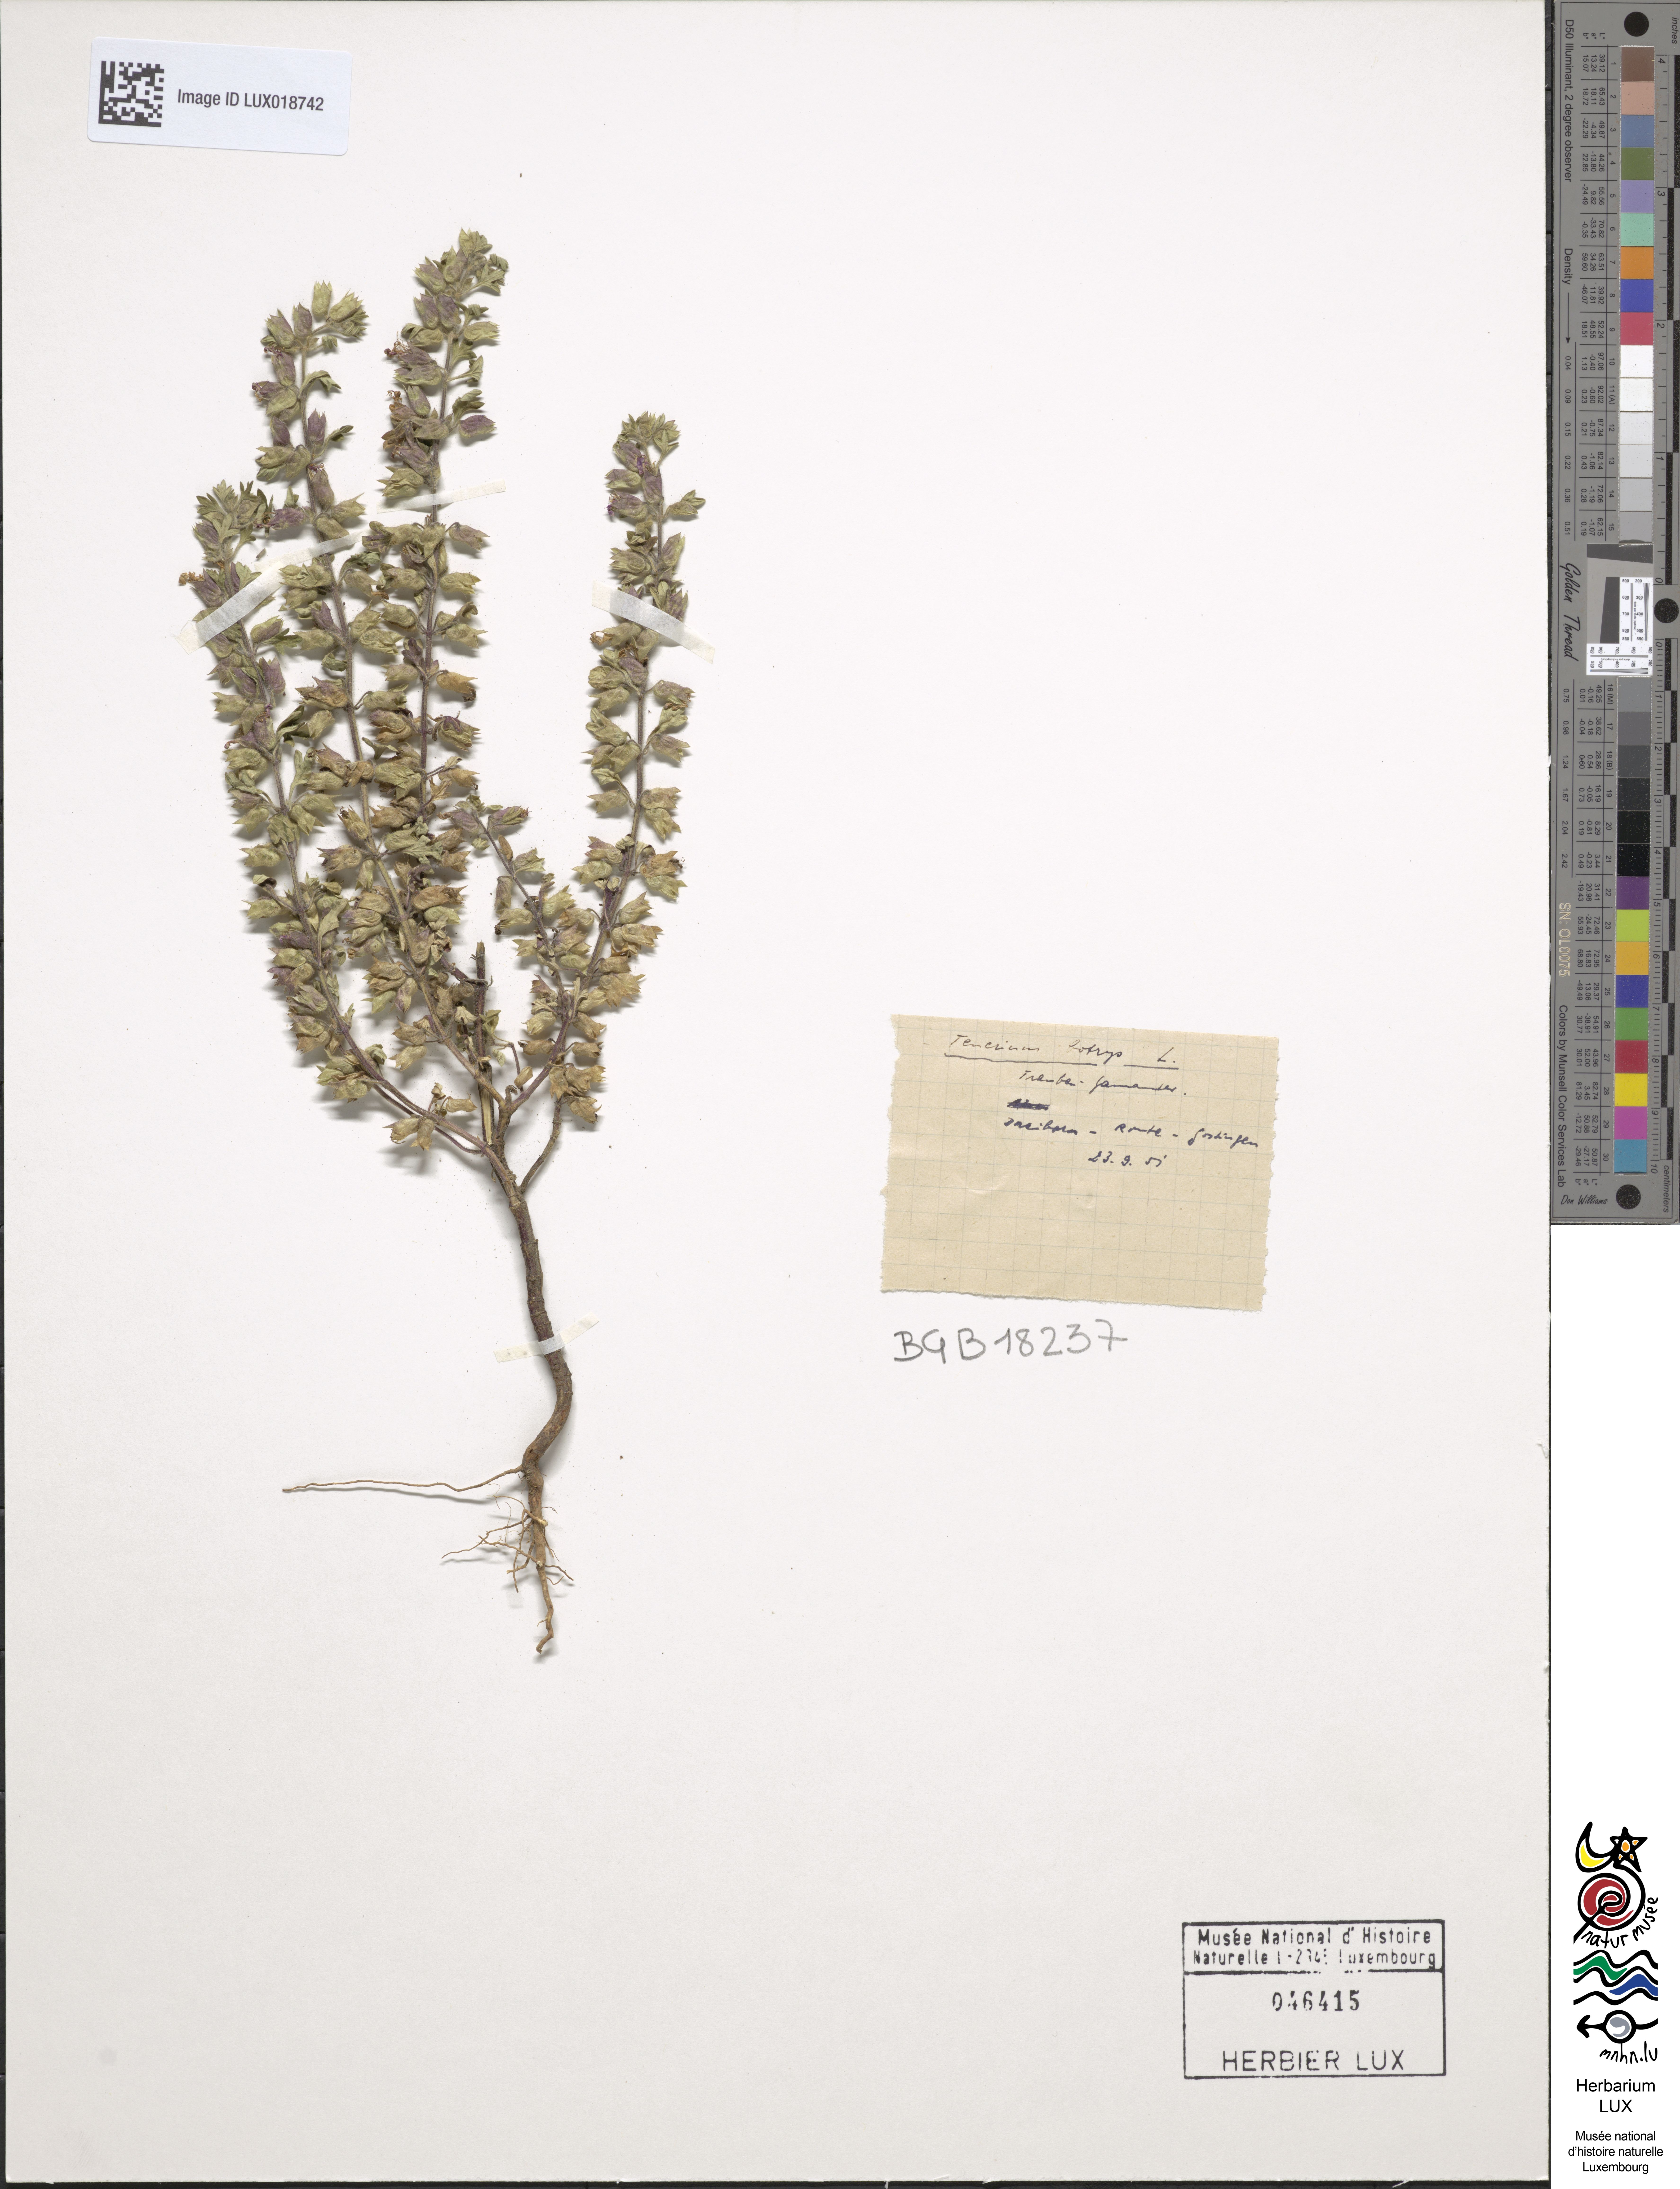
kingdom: Plantae
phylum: Tracheophyta
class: Magnoliopsida
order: Lamiales
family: Lamiaceae
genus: Teucrium
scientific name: Teucrium botrys
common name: Cut-leaved germander
